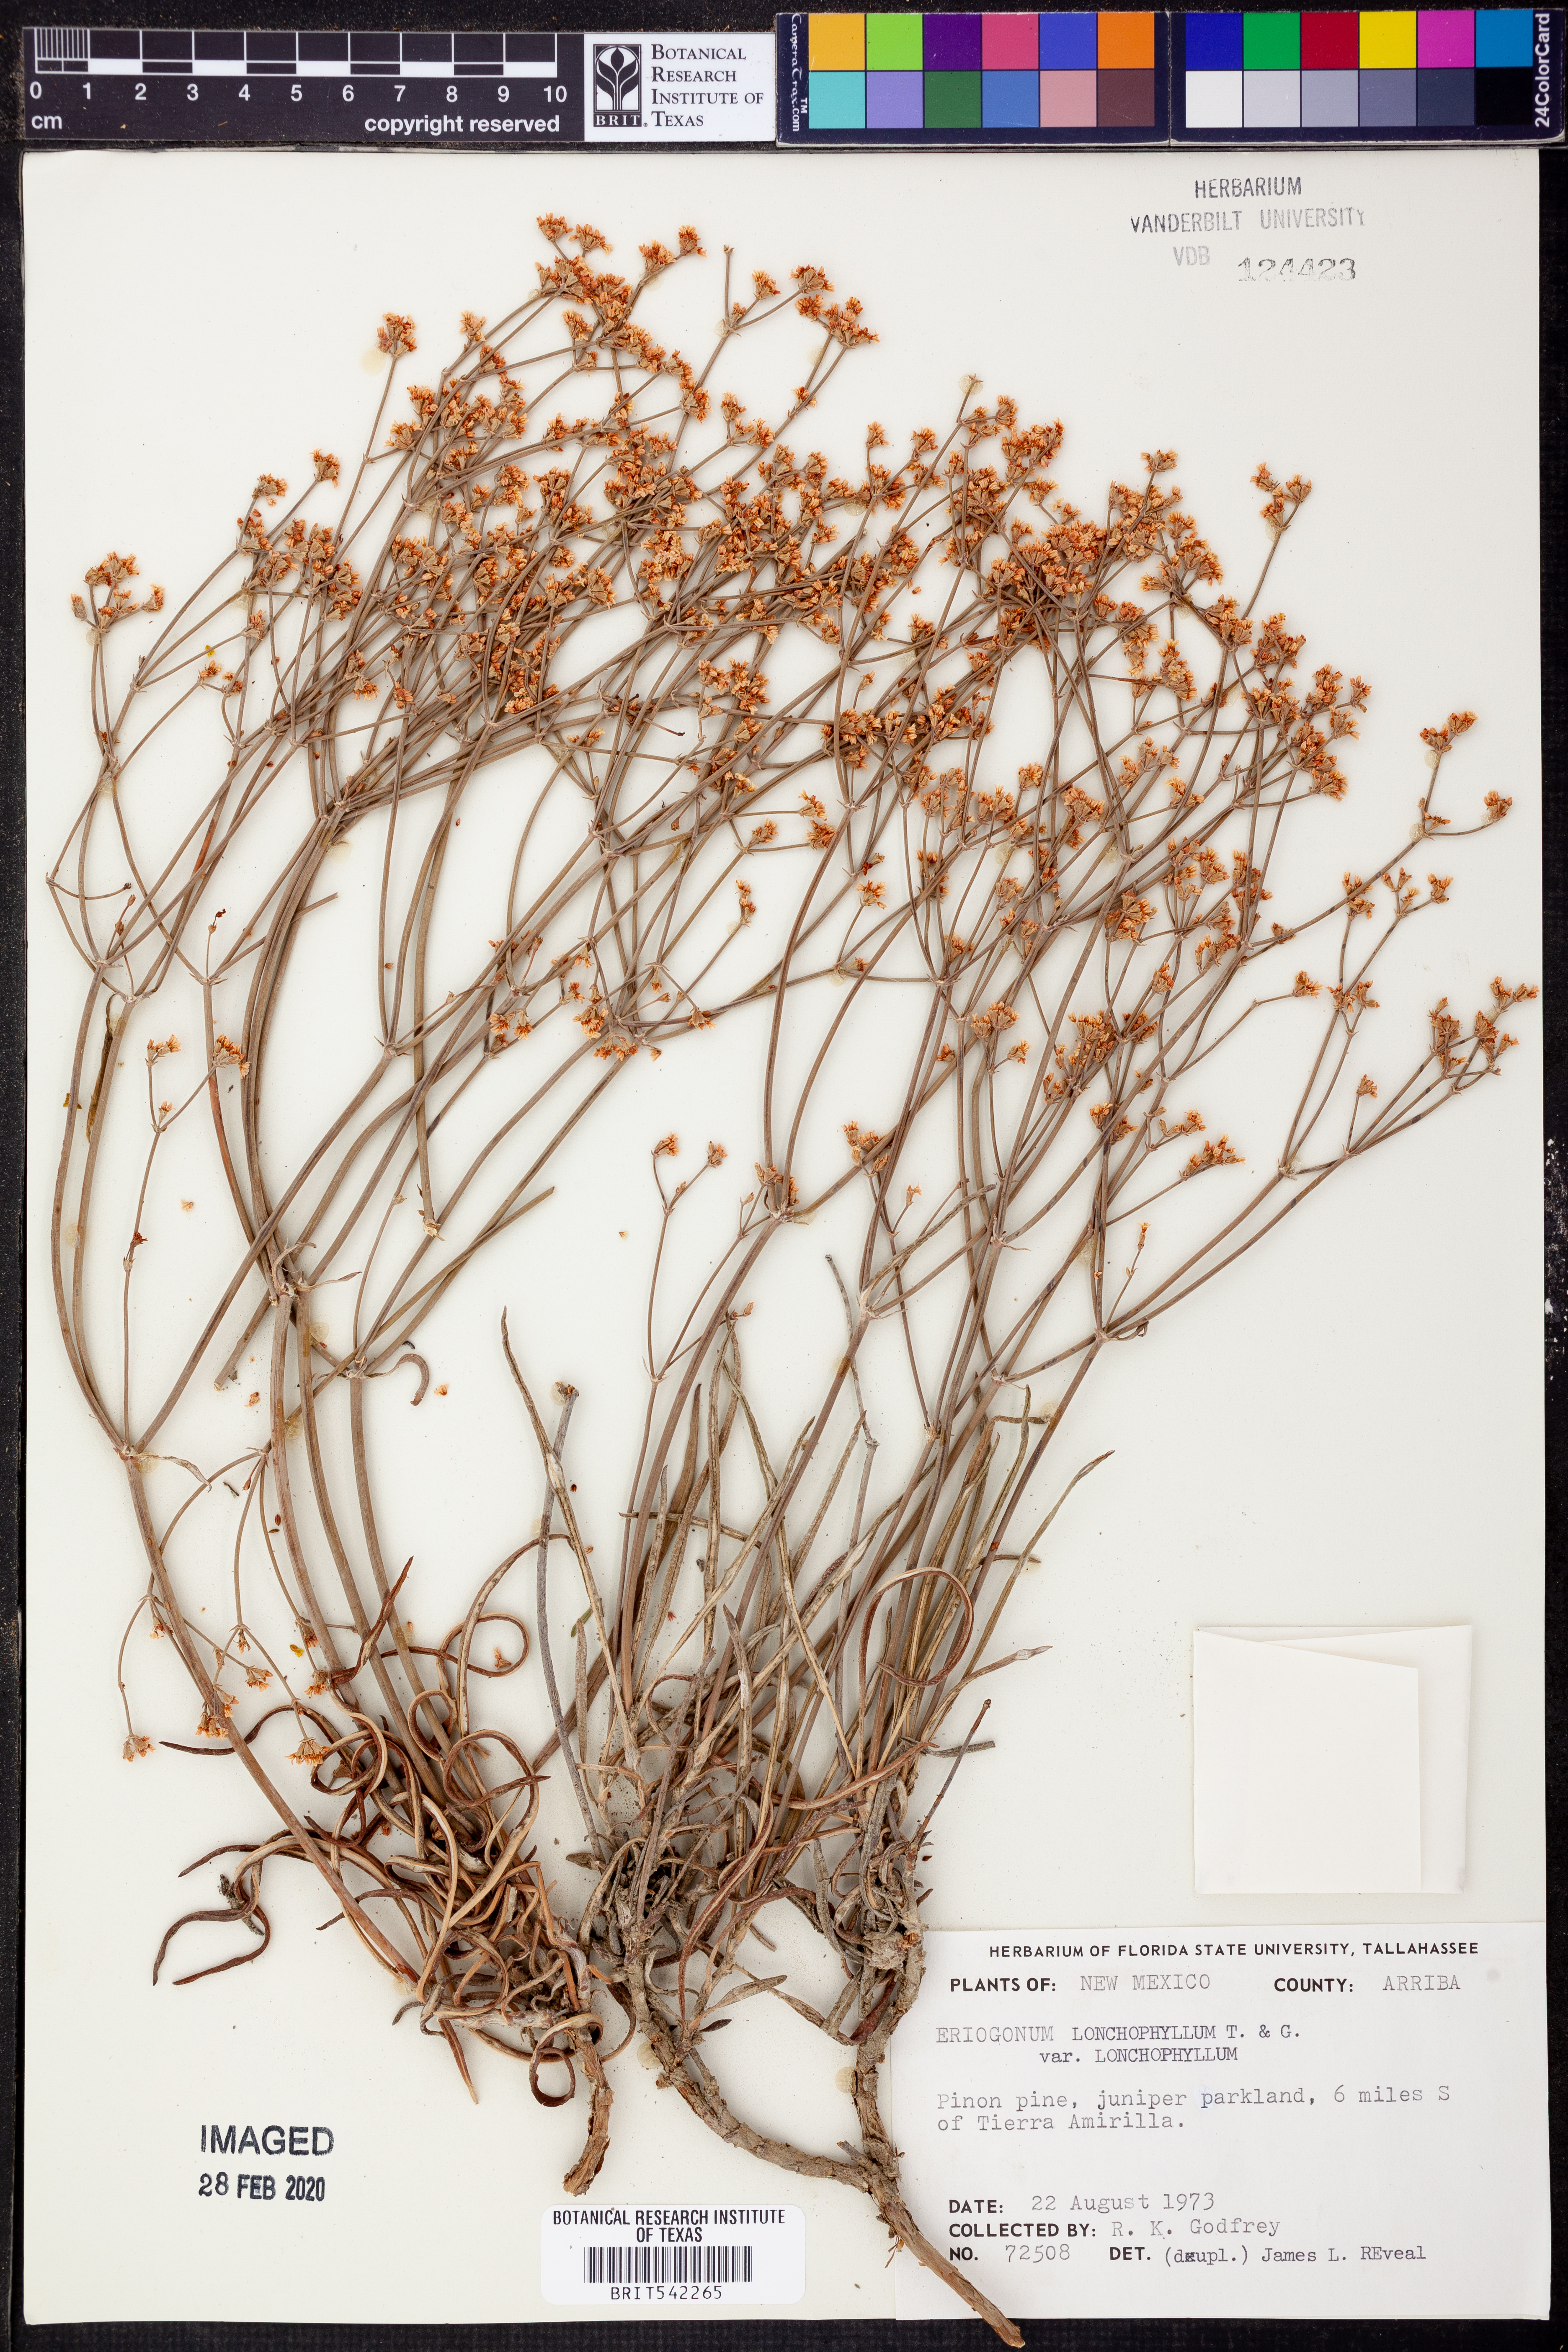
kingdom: Plantae
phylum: Tracheophyta
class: Magnoliopsida
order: Caryophyllales
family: Polygonaceae
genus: Eriogonum
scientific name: Eriogonum lonchophyllum
